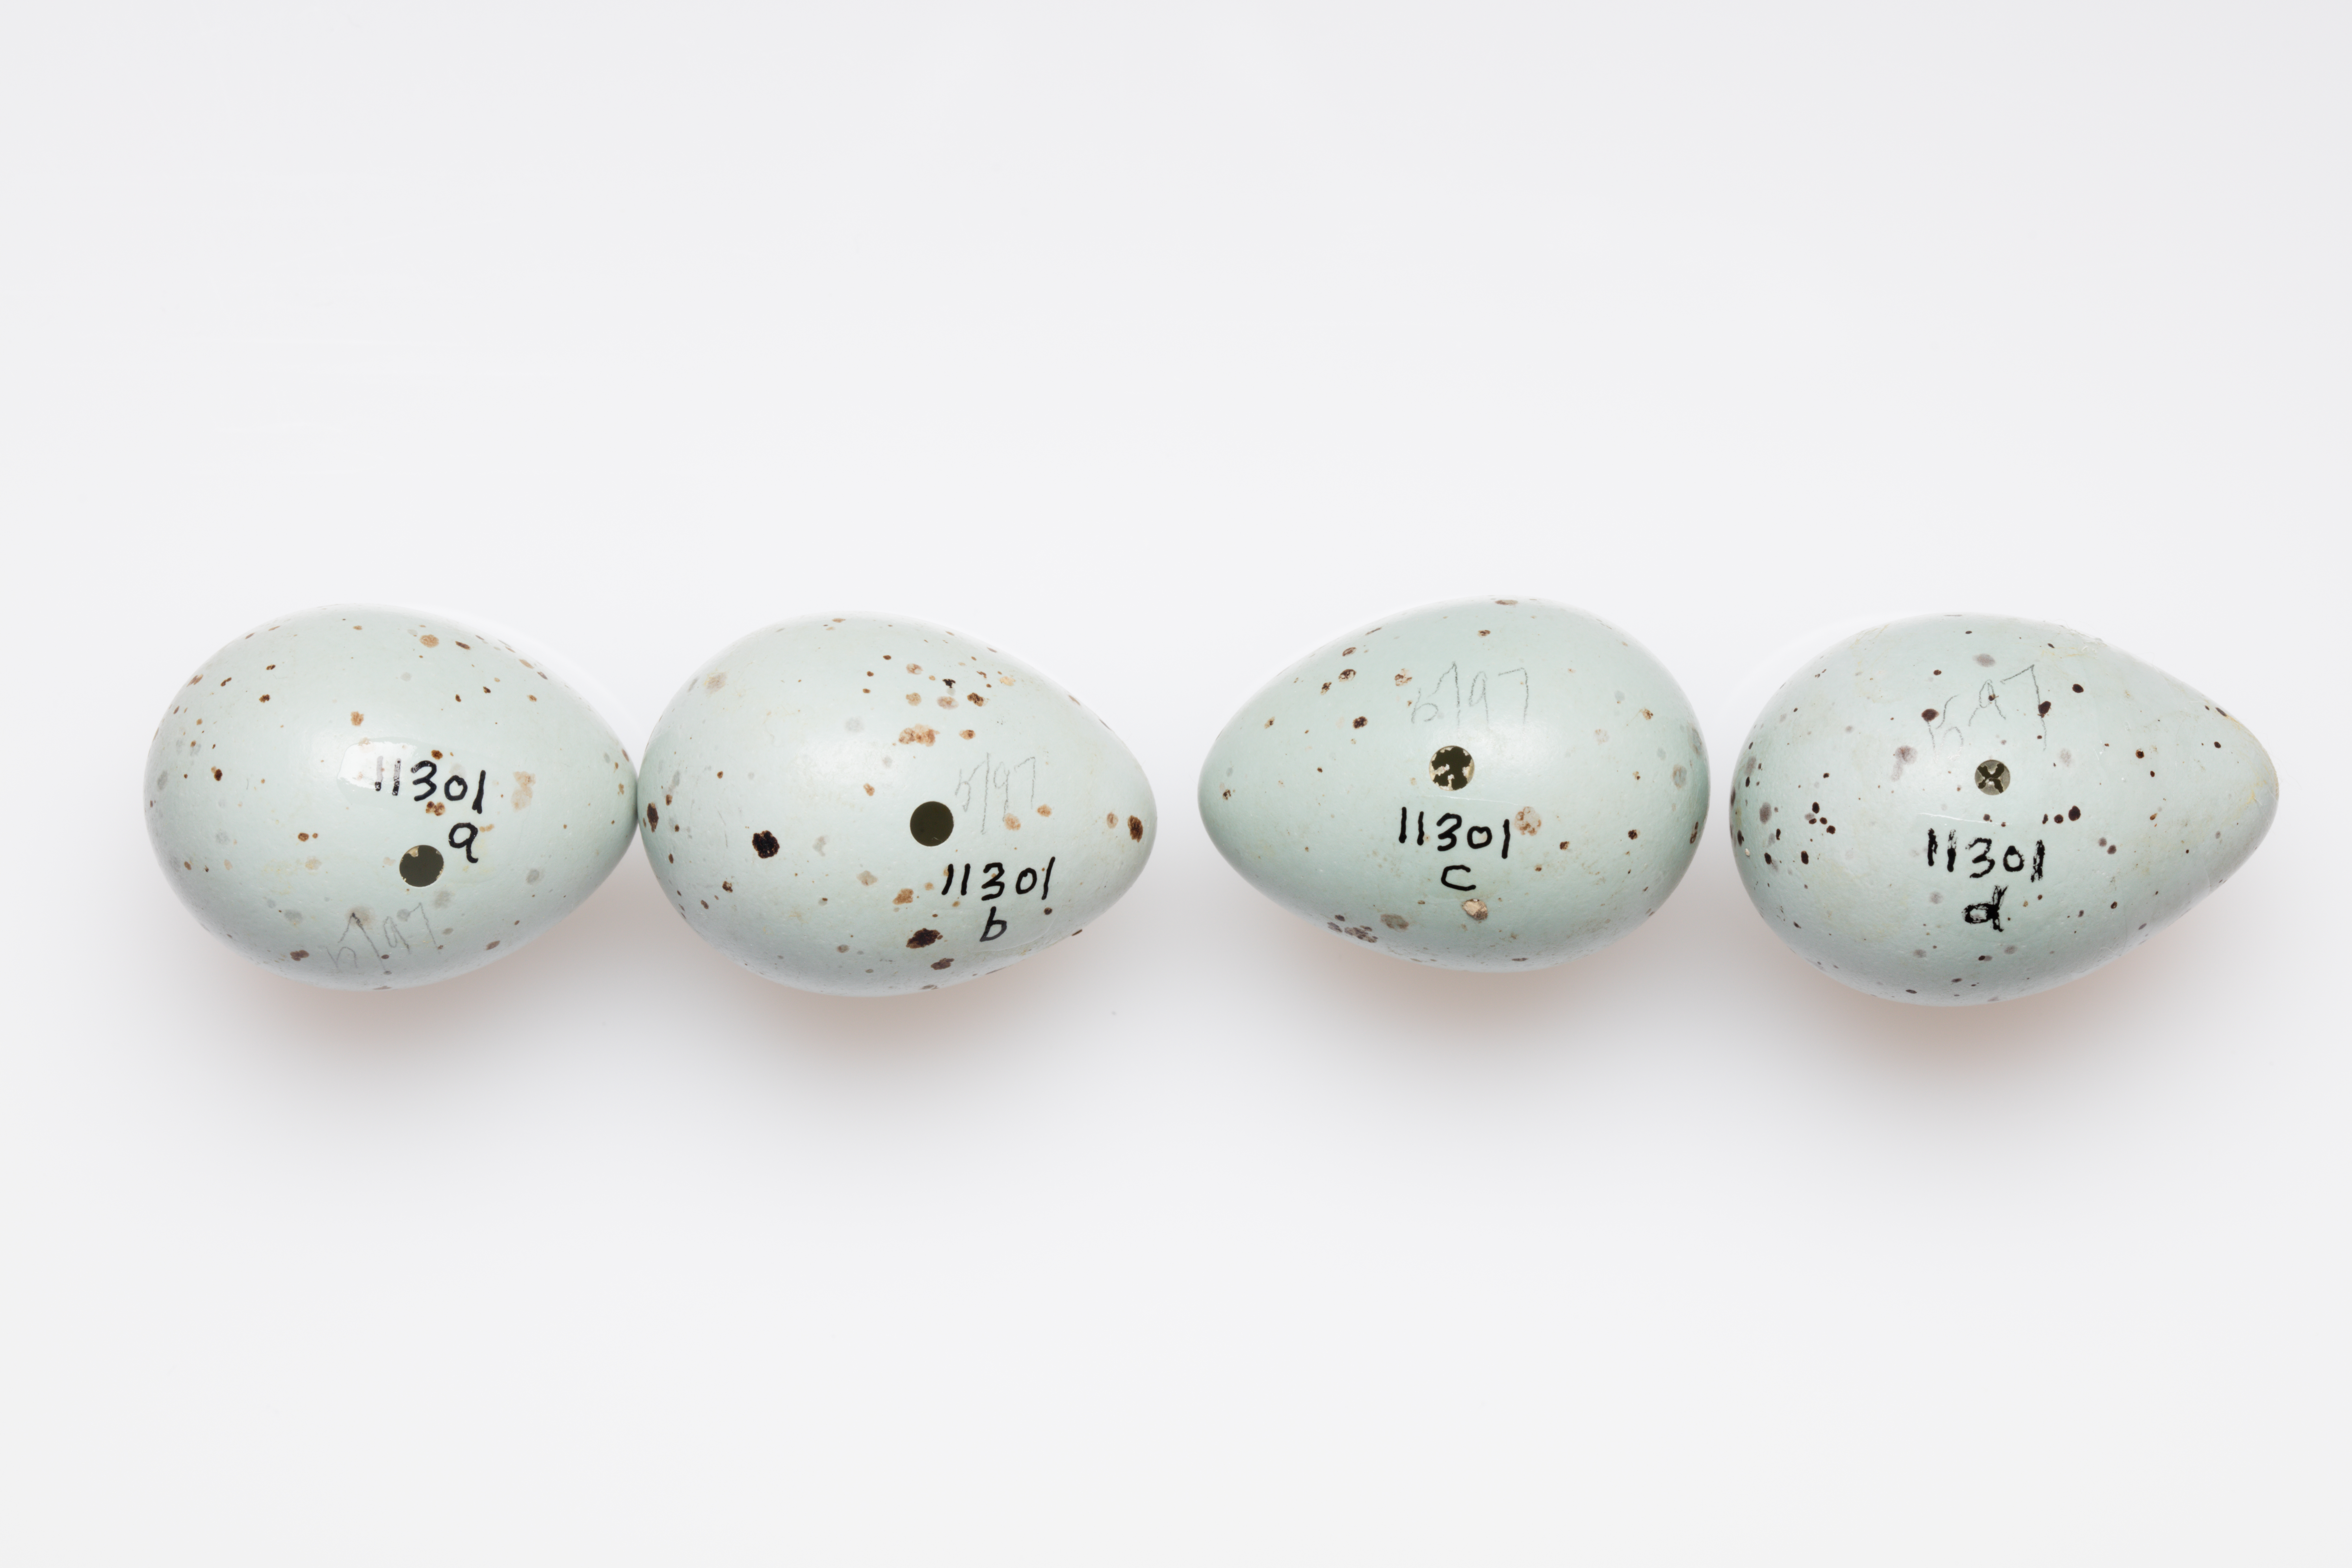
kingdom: Animalia
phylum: Chordata
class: Aves
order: Passeriformes
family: Turdidae
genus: Turdus
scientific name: Turdus philomelos
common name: Song thrush
